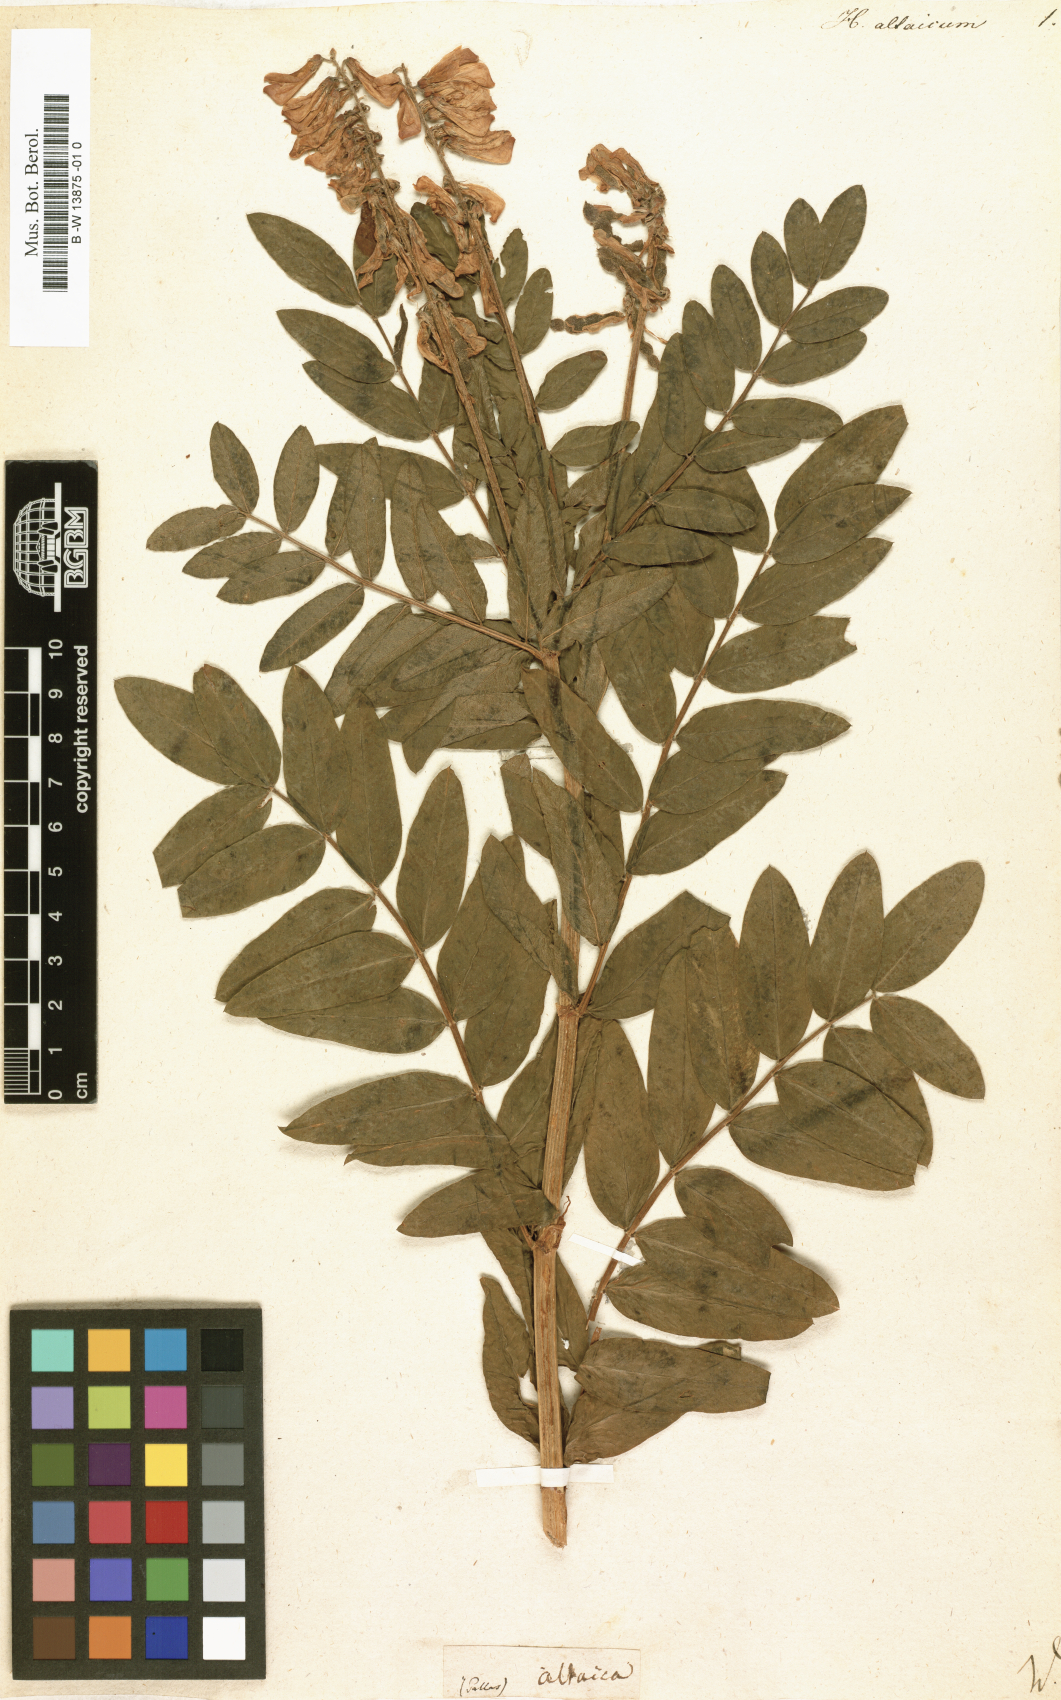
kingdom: Plantae
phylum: Tracheophyta
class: Magnoliopsida
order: Fabales
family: Fabaceae
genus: Hedysarum
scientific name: Hedysarum
